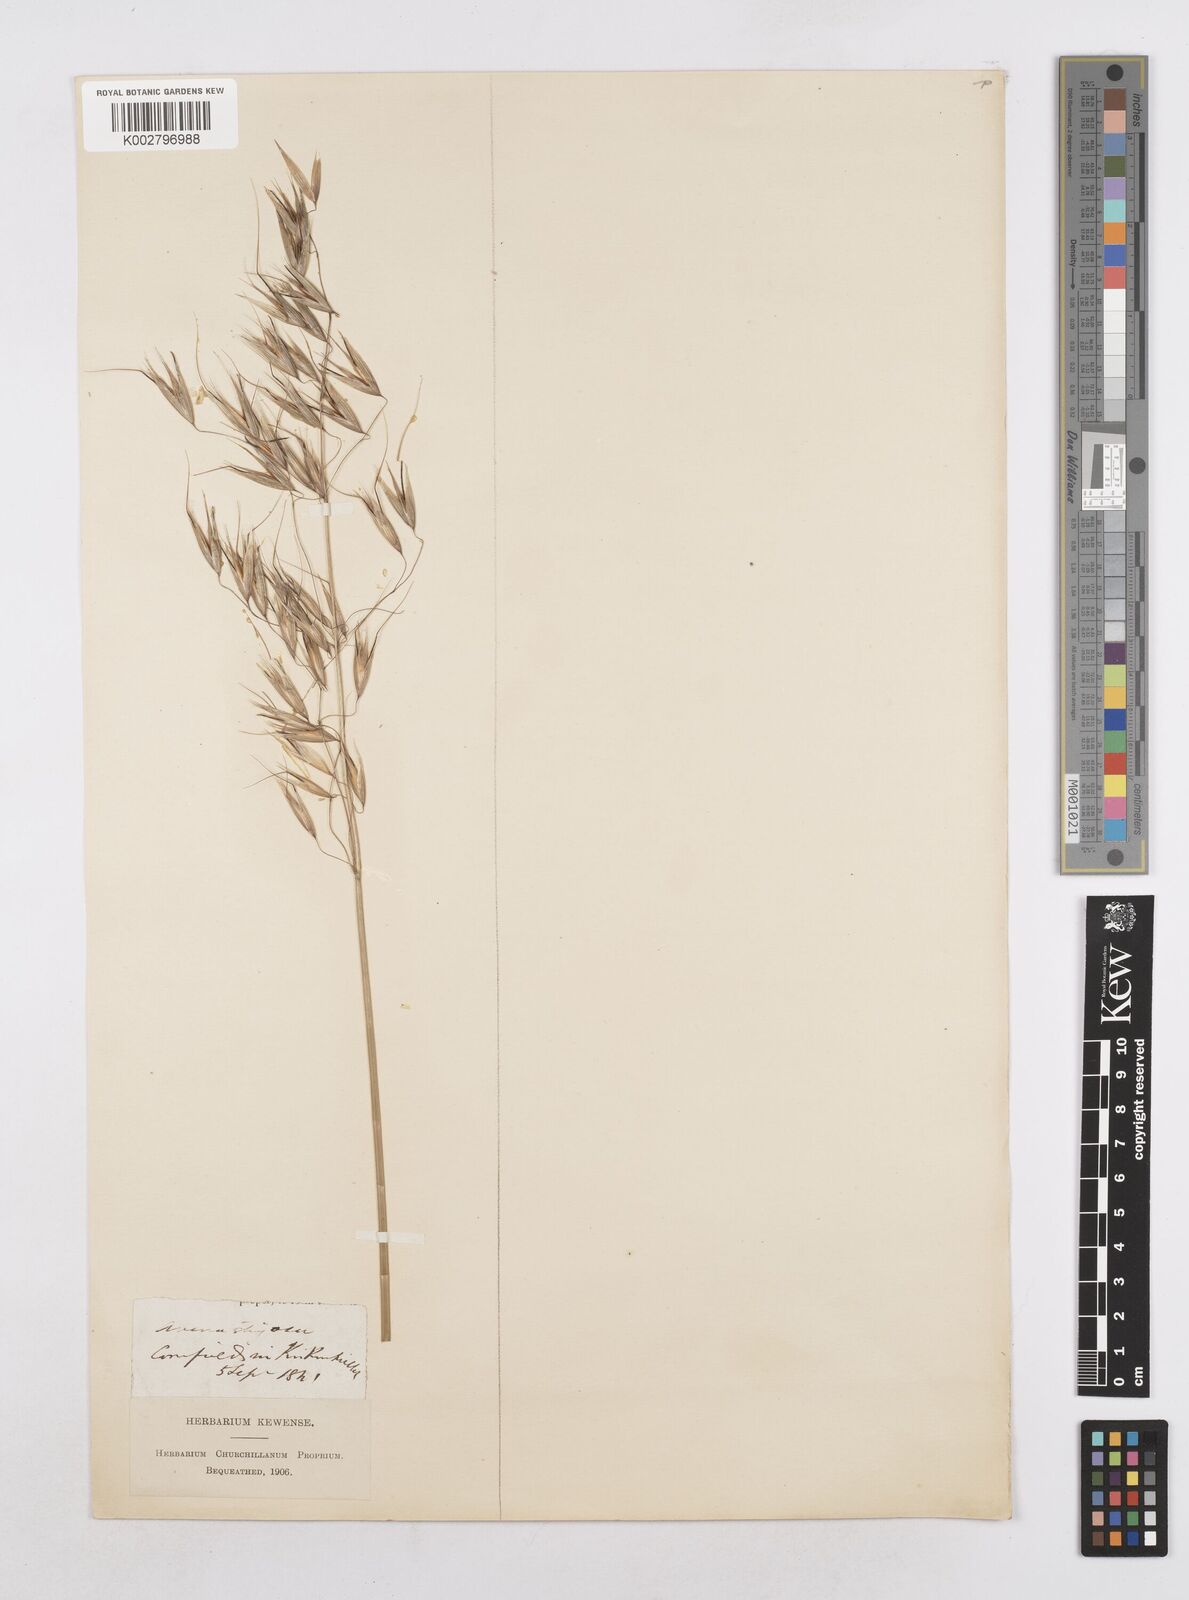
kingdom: Plantae
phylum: Tracheophyta
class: Liliopsida
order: Poales
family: Poaceae
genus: Avena
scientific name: Avena strigosa
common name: Bristle oat
